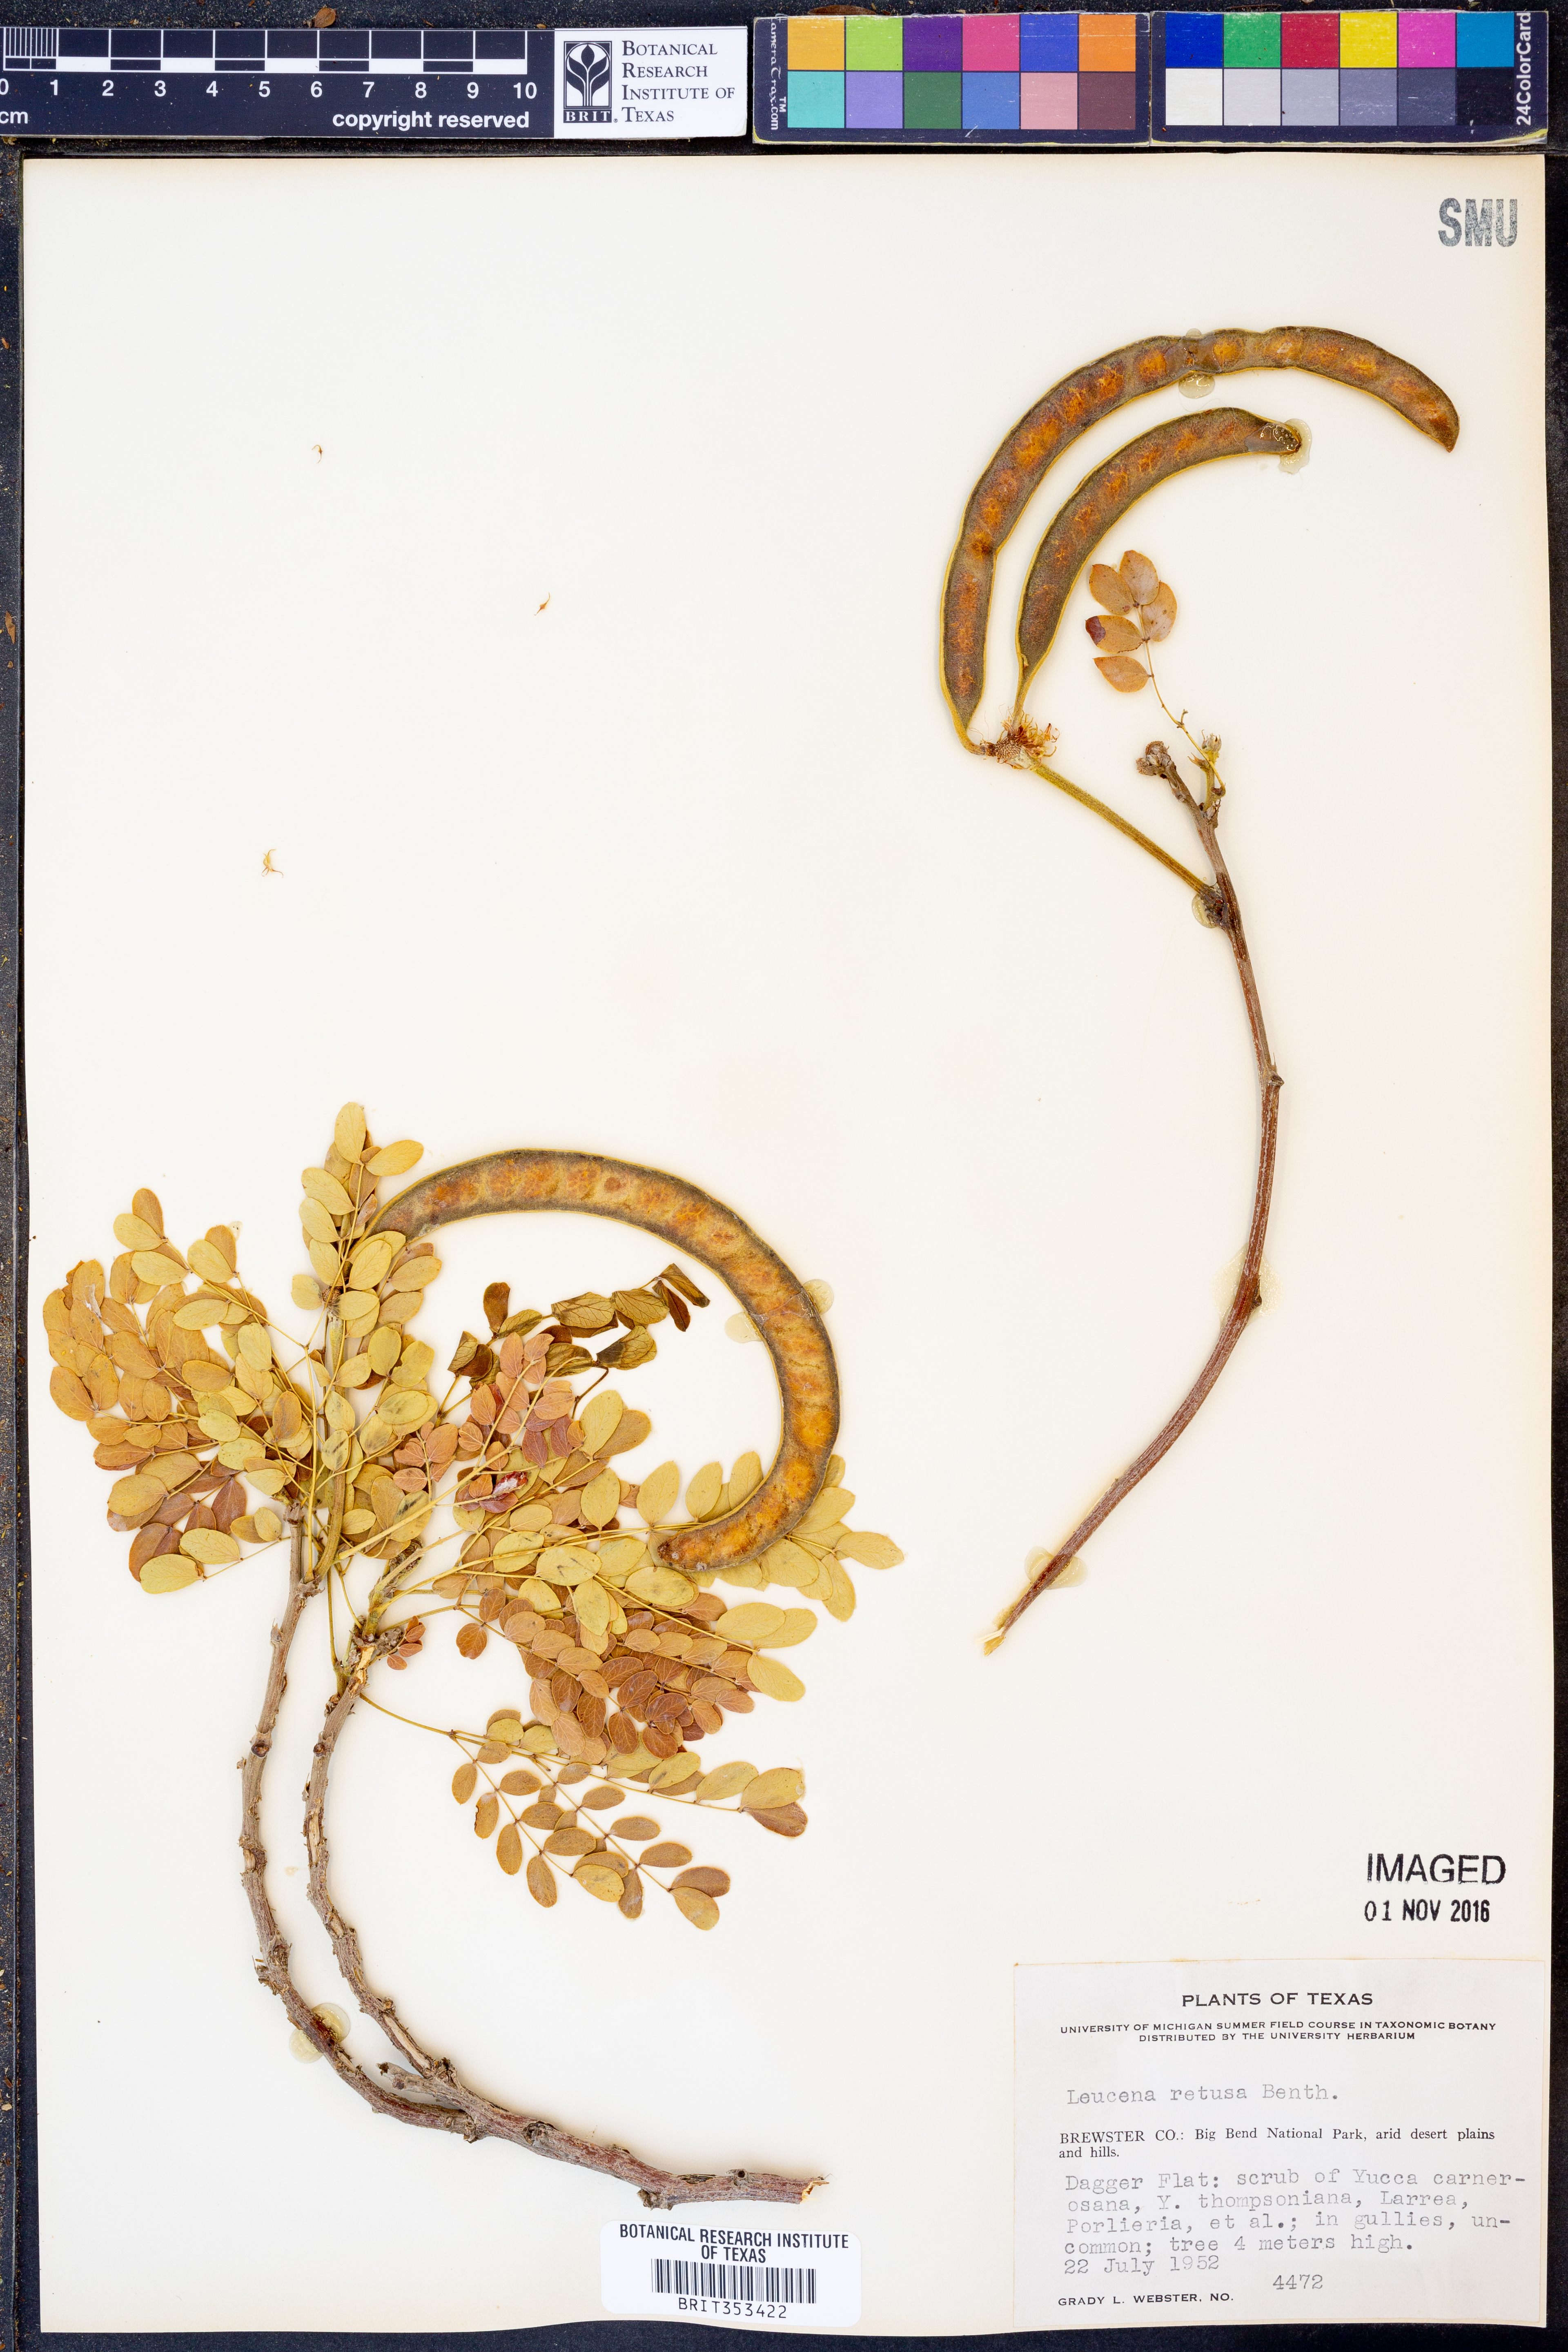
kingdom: Plantae
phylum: Tracheophyta
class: Magnoliopsida
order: Fabales
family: Fabaceae
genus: Leucaena
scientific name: Leucaena retusa
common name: Littleleaf leadtree
